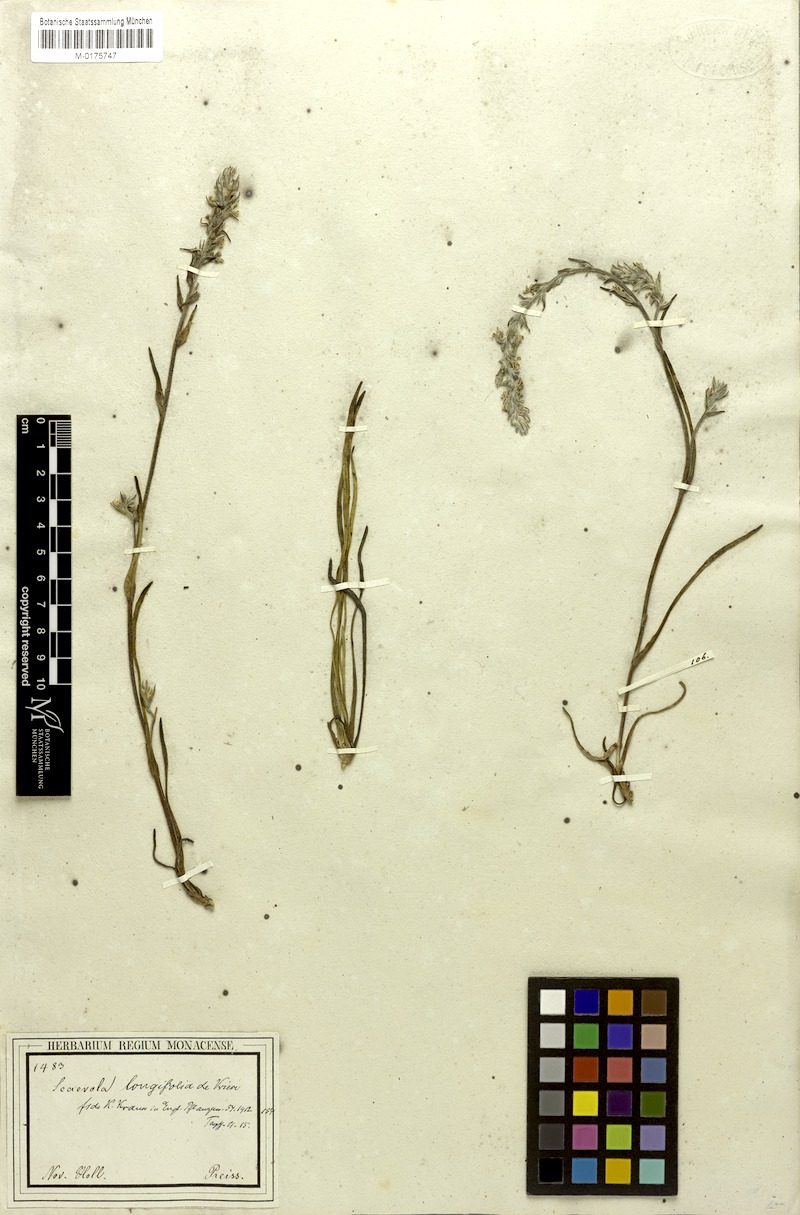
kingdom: Plantae
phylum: Tracheophyta
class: Magnoliopsida
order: Asterales
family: Goodeniaceae
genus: Scaevola
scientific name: Scaevola lanceolata
